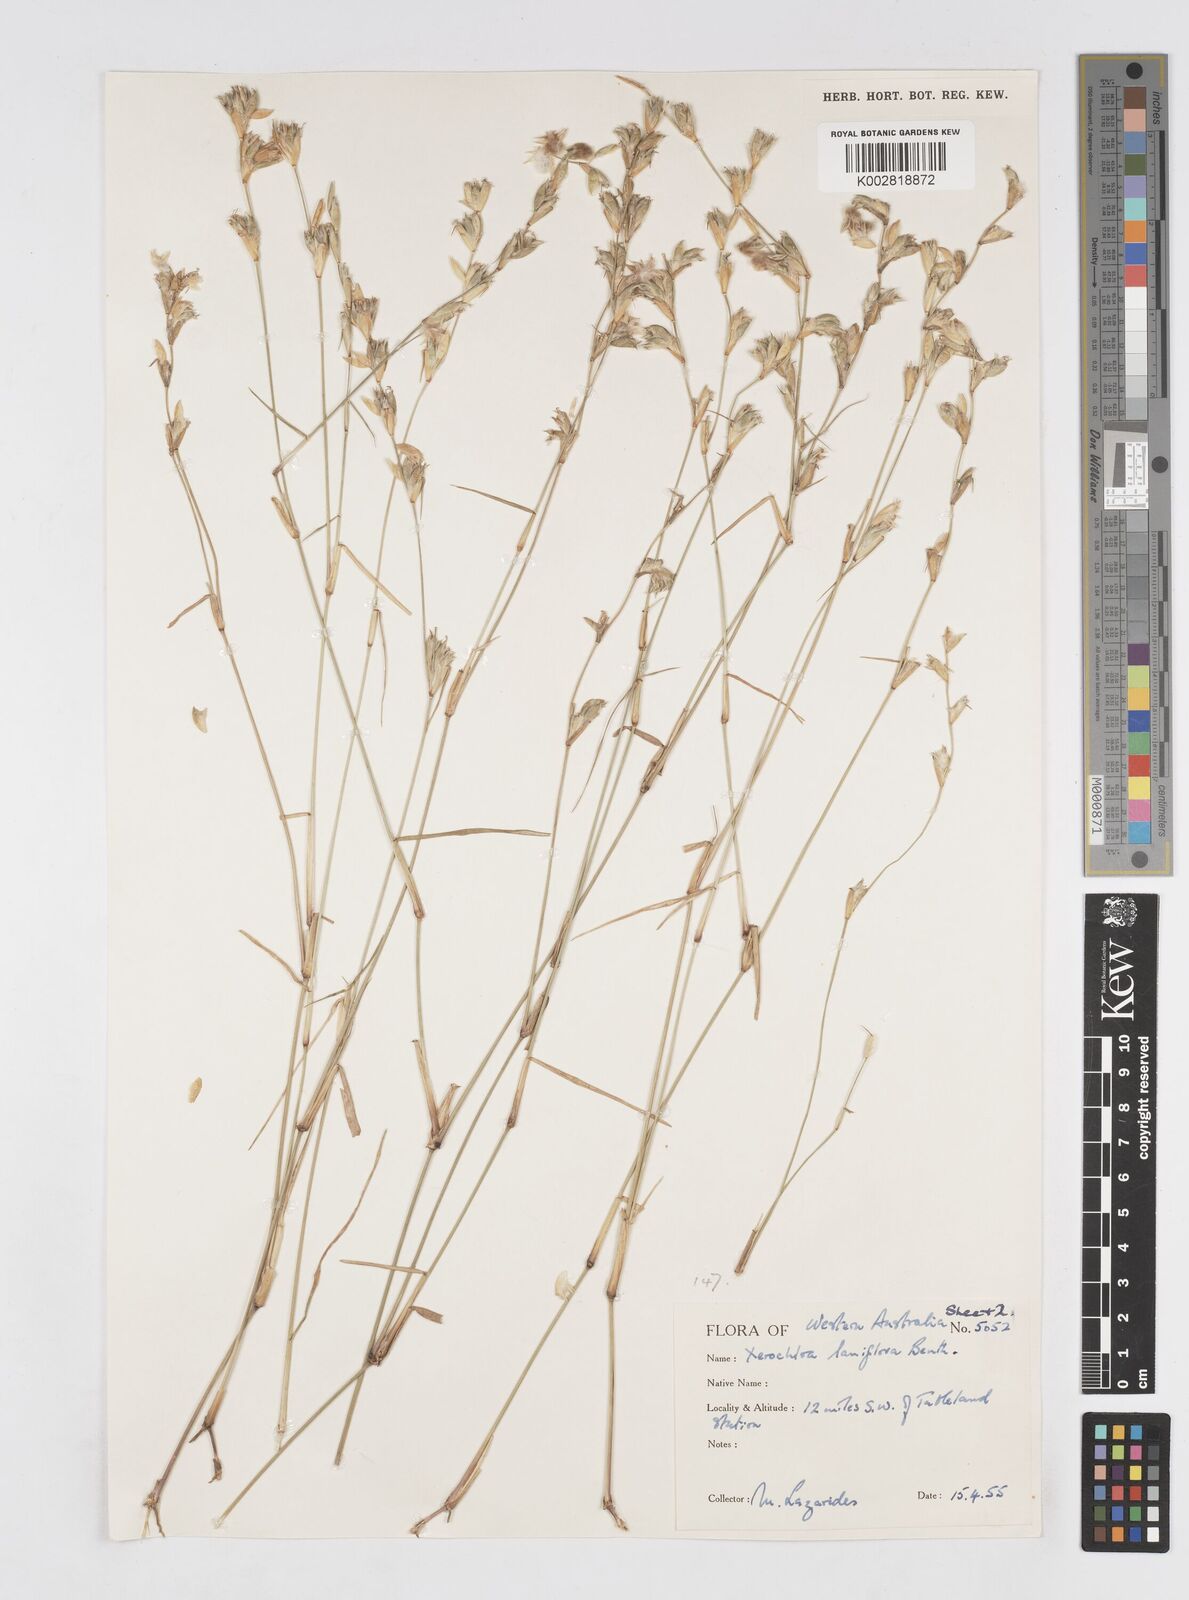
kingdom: Plantae
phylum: Tracheophyta
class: Liliopsida
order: Poales
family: Poaceae
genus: Xerochloa
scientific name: Xerochloa laniflora
